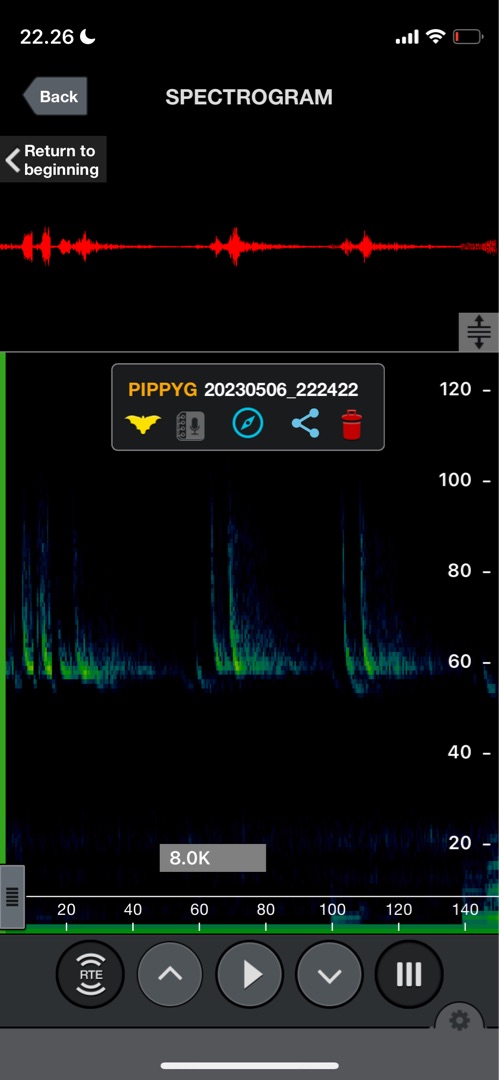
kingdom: Animalia
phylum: Chordata
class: Mammalia
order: Chiroptera
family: Vespertilionidae
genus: Pipistrellus
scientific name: Pipistrellus pygmaeus
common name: Dværgflagermus
